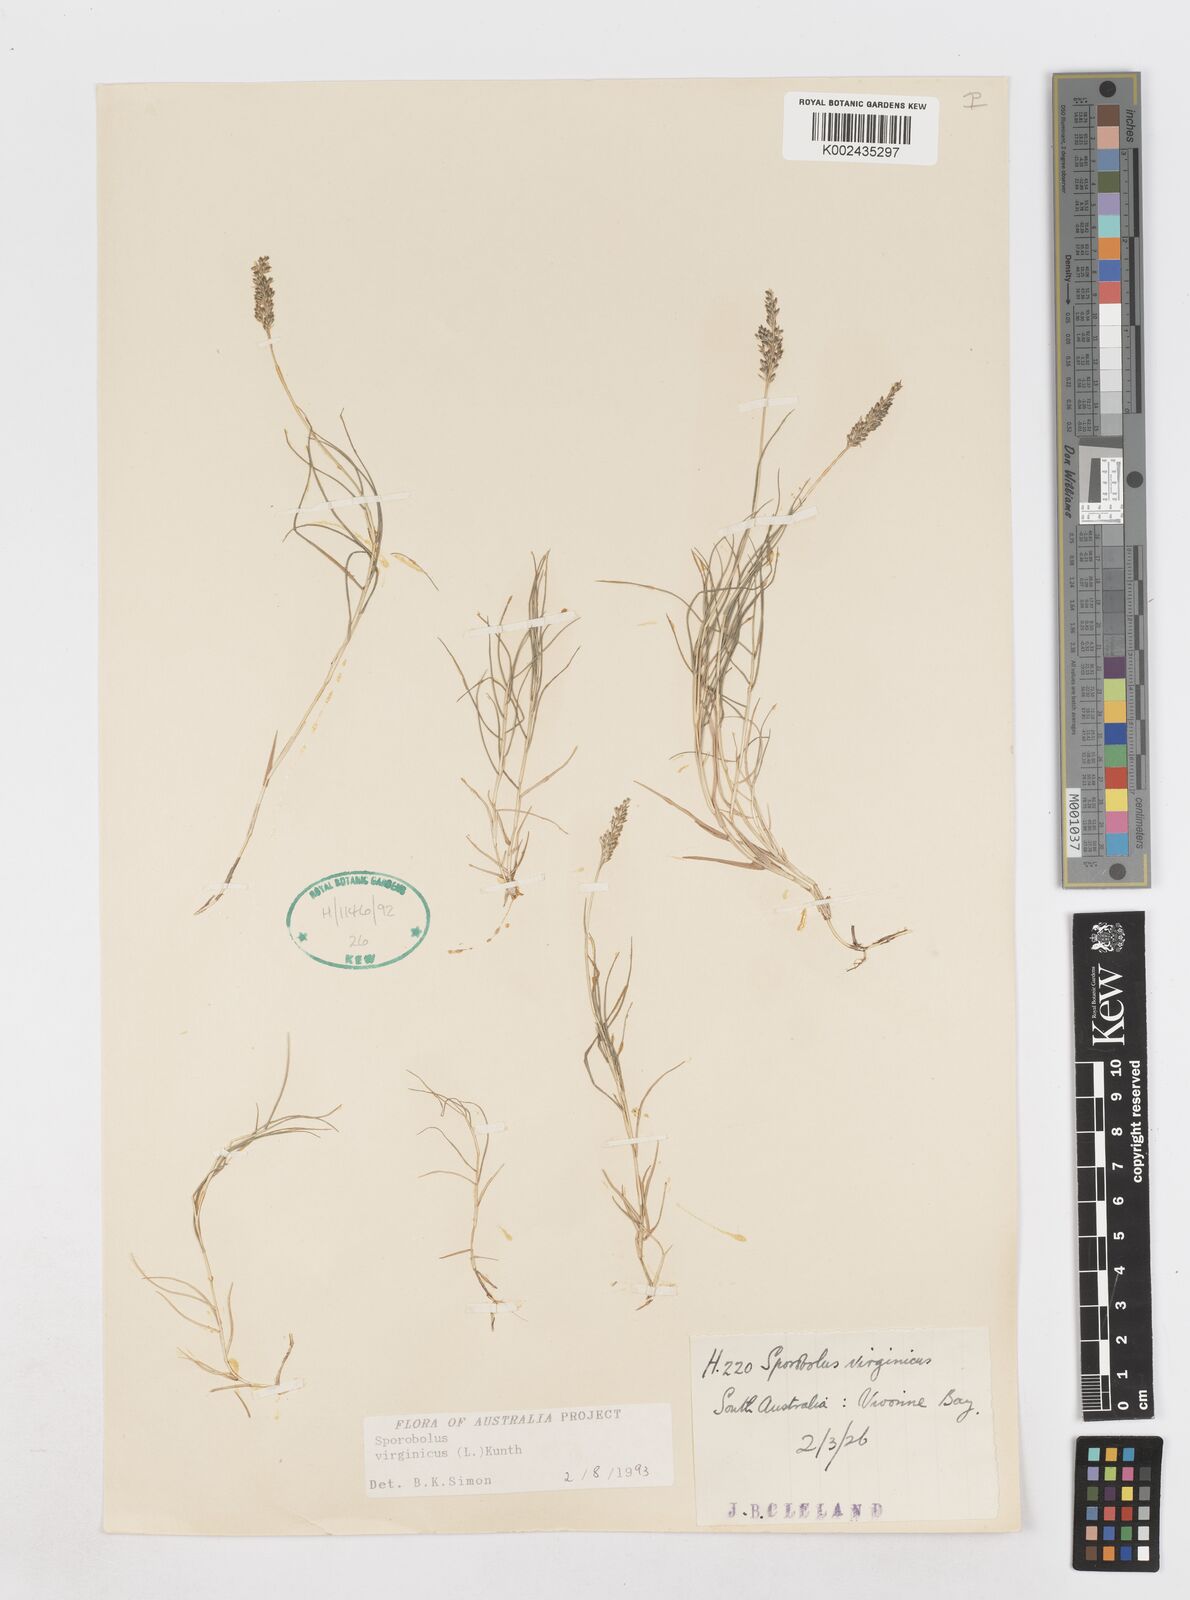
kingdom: Plantae
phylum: Tracheophyta
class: Liliopsida
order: Poales
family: Poaceae
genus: Sporobolus
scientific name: Sporobolus virginicus
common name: Beach dropseed
